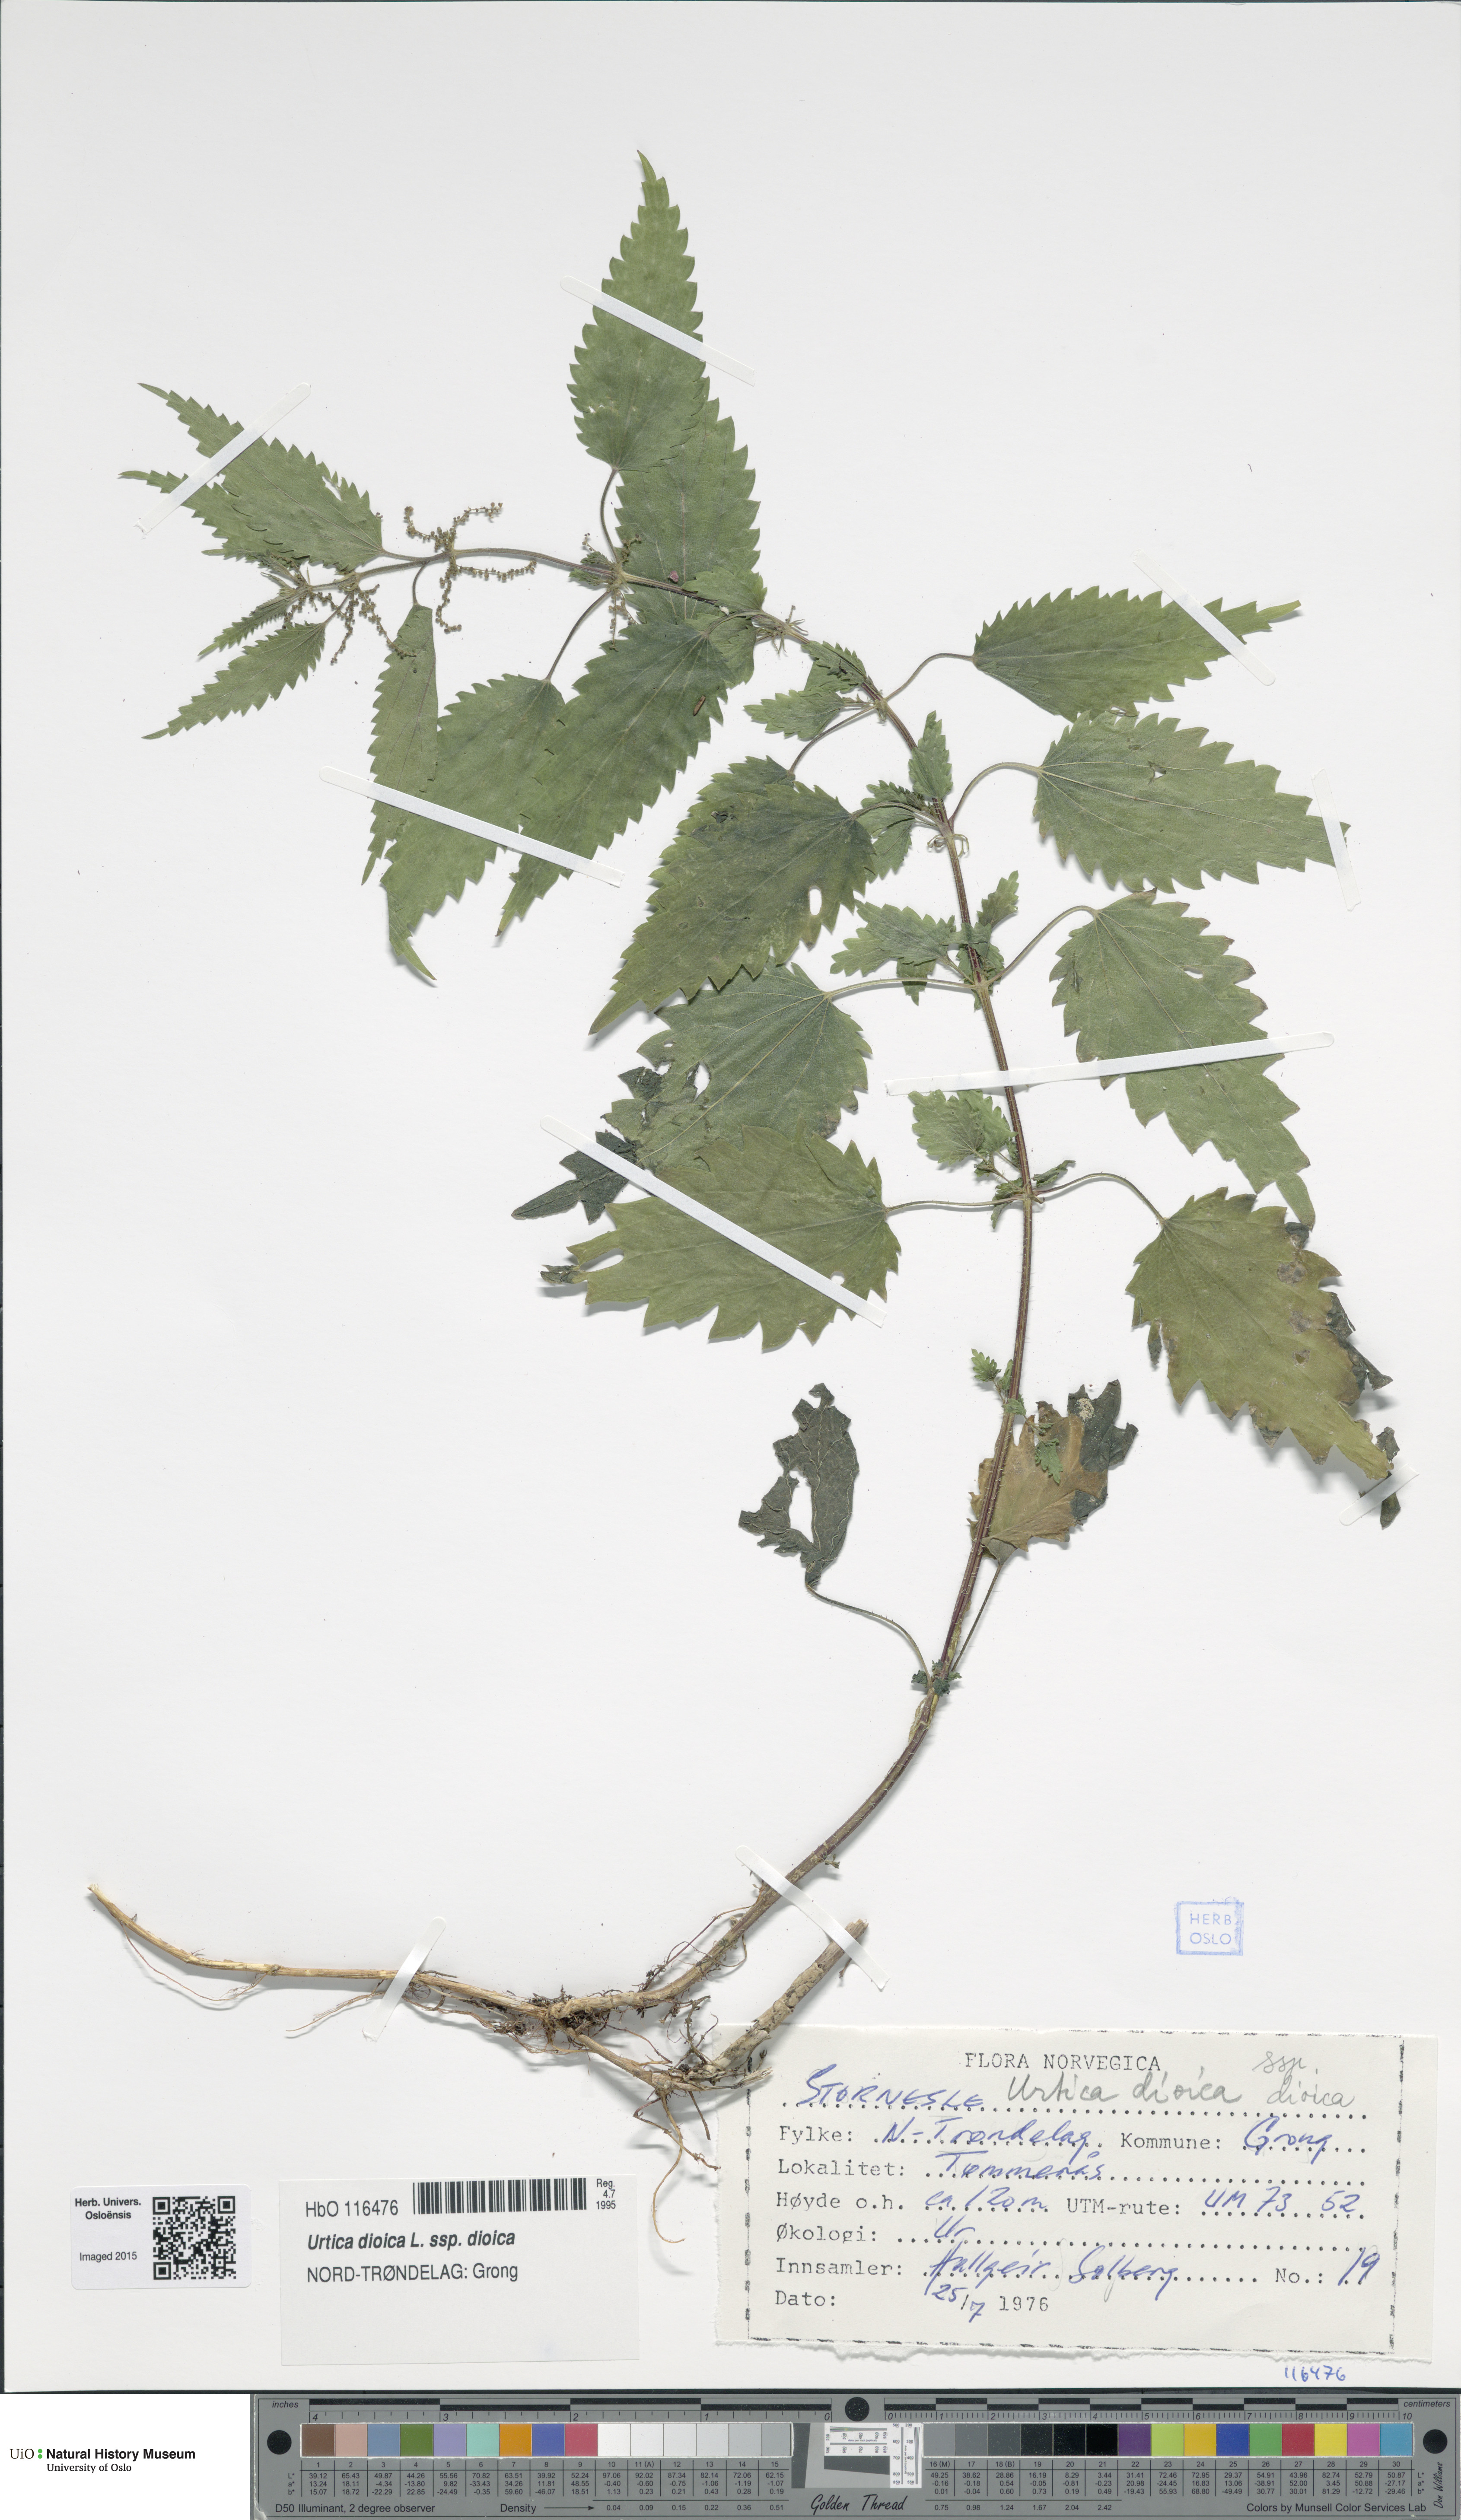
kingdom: Plantae
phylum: Tracheophyta
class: Magnoliopsida
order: Rosales
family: Urticaceae
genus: Urtica
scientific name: Urtica dioica
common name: Common nettle
